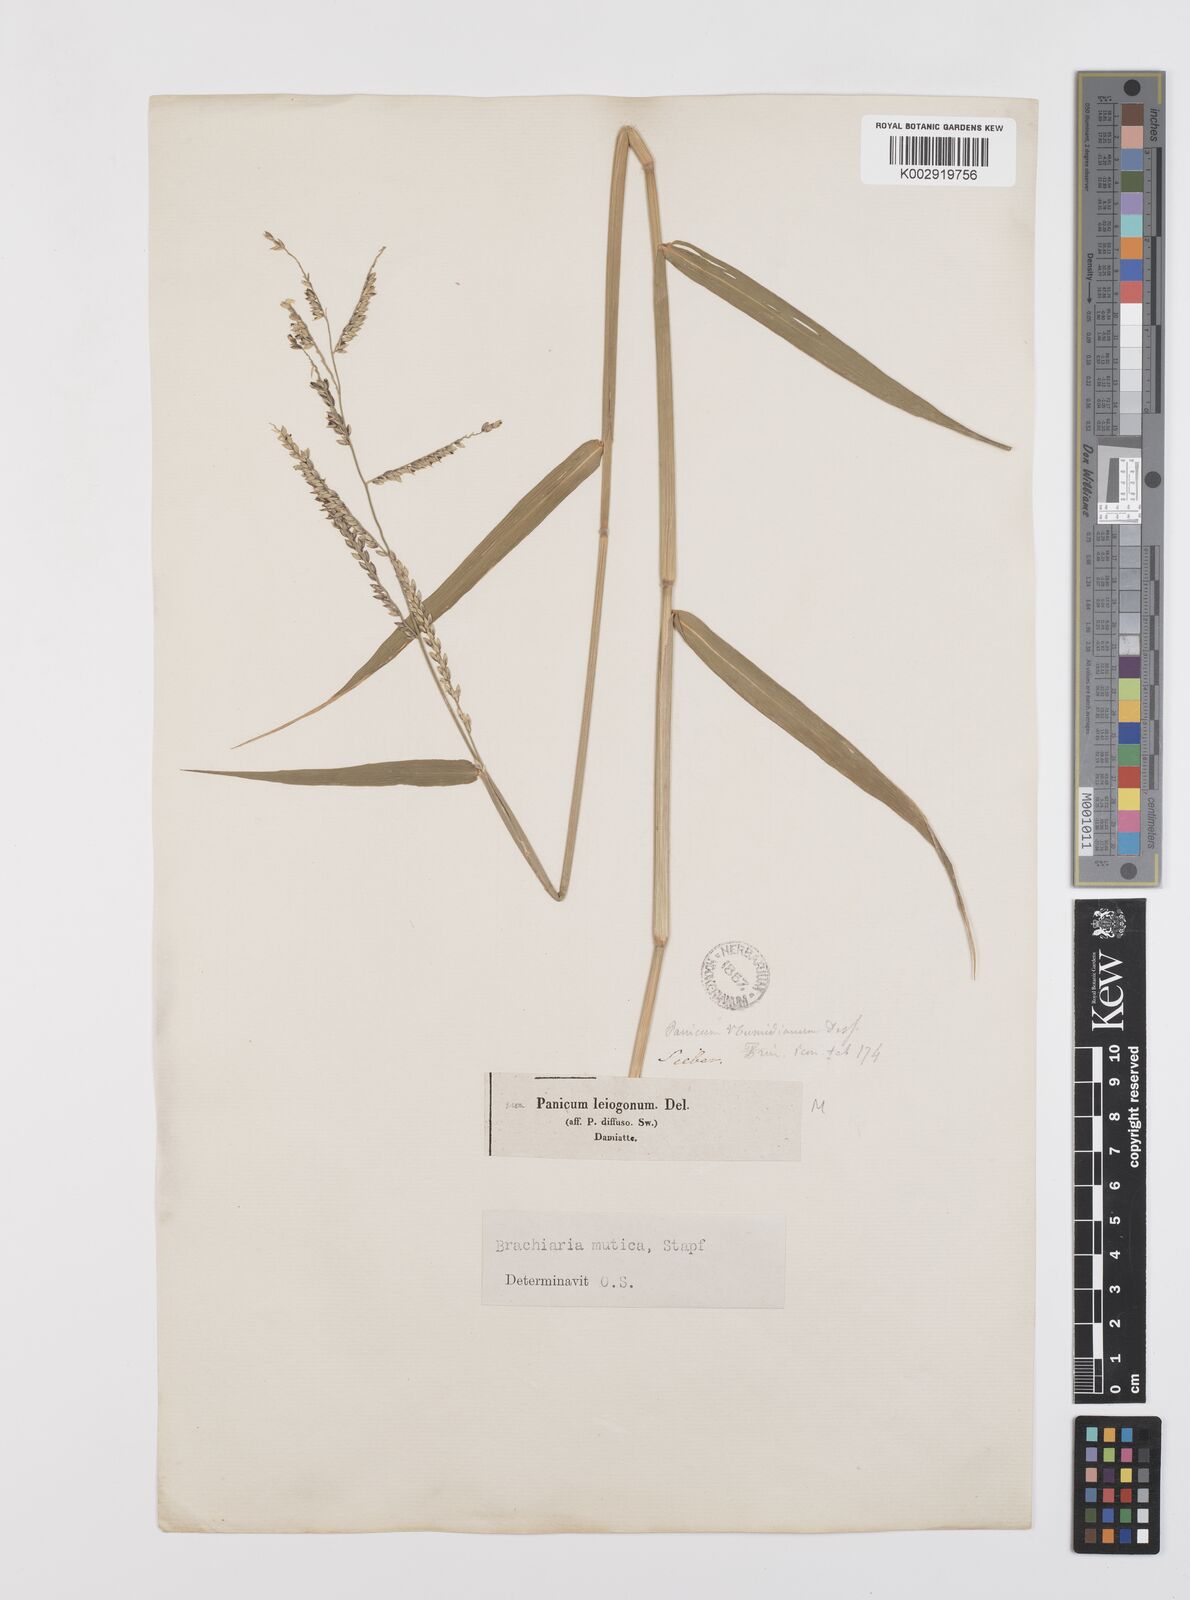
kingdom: Plantae
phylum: Tracheophyta
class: Liliopsida
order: Poales
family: Poaceae
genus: Urochloa
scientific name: Urochloa mutica
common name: Para grass
